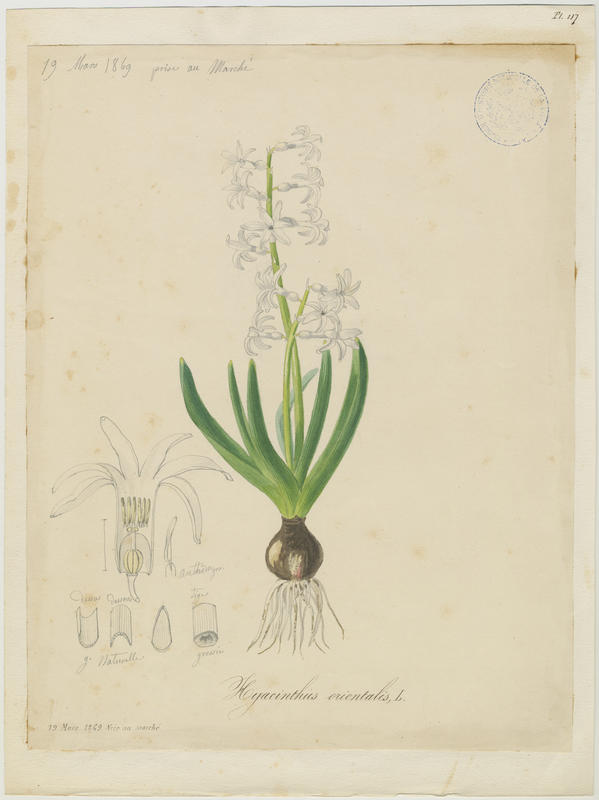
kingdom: Plantae
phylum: Tracheophyta
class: Liliopsida
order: Asparagales
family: Asparagaceae
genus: Hyacinthus
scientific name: Hyacinthus orientalis
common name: Hyacinth
